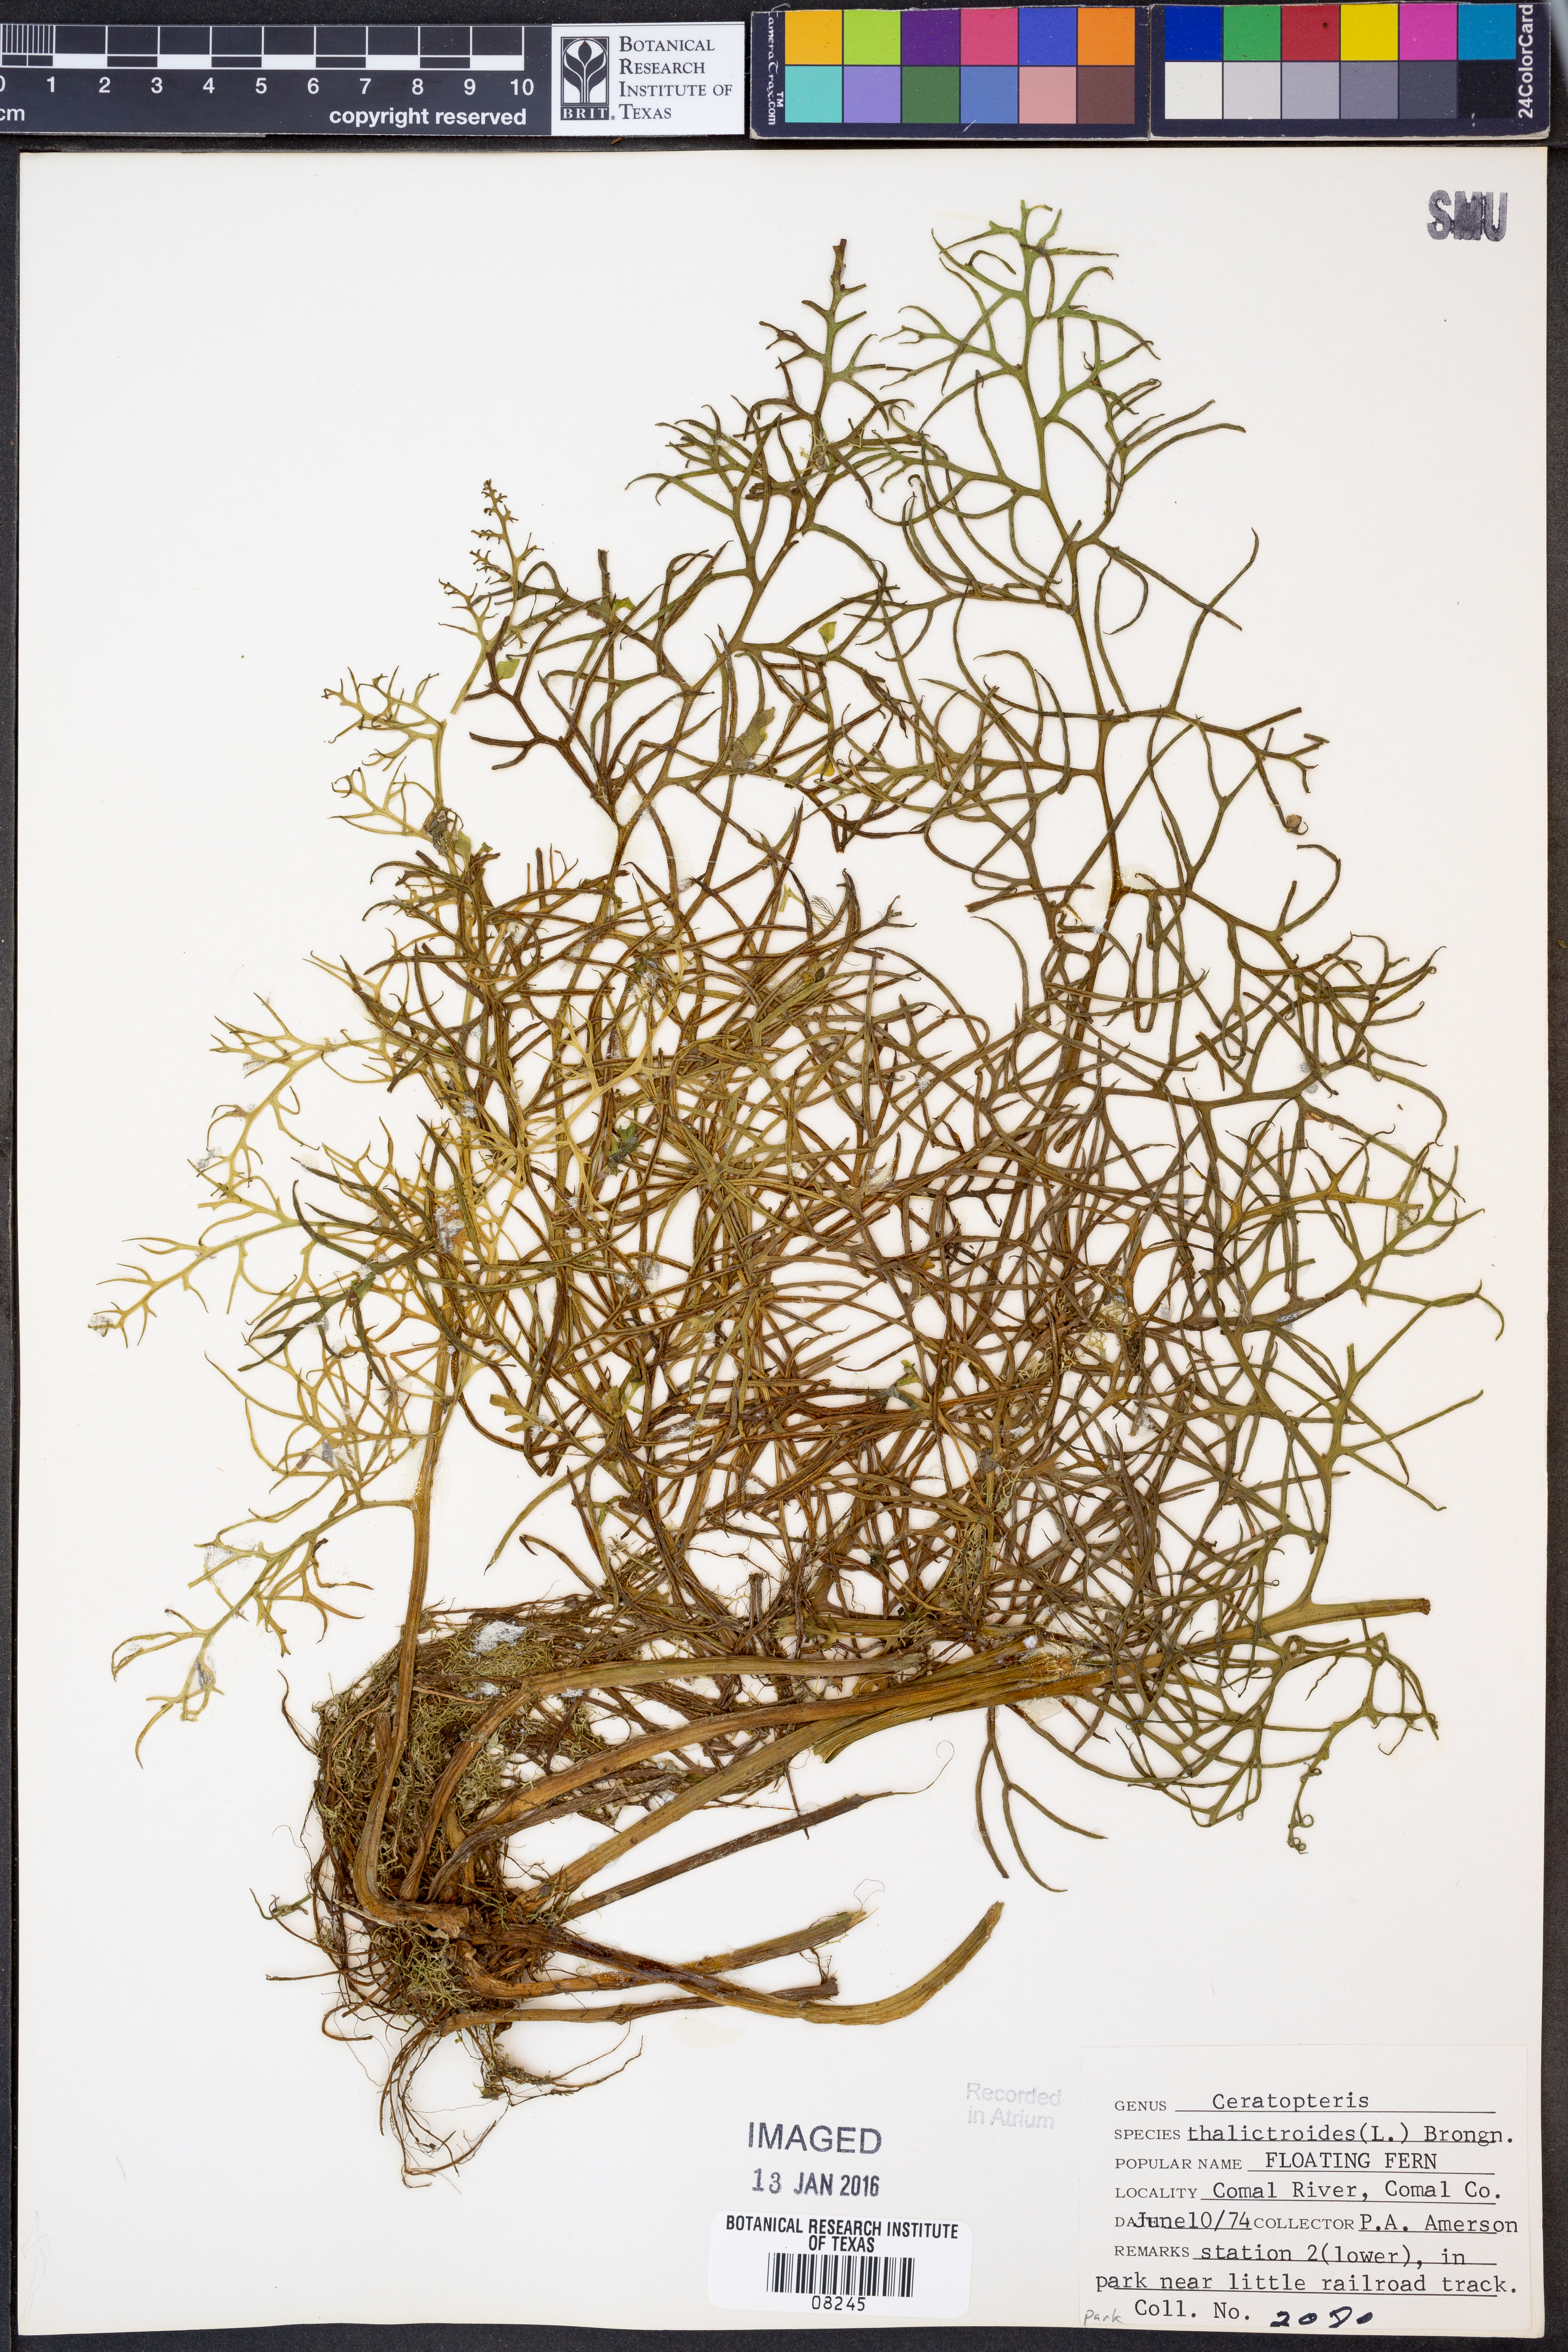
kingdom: Plantae
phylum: Tracheophyta
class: Polypodiopsida
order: Polypodiales
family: Pteridaceae
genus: Ceratopteris
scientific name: Ceratopteris thalictroides
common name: Water fern
